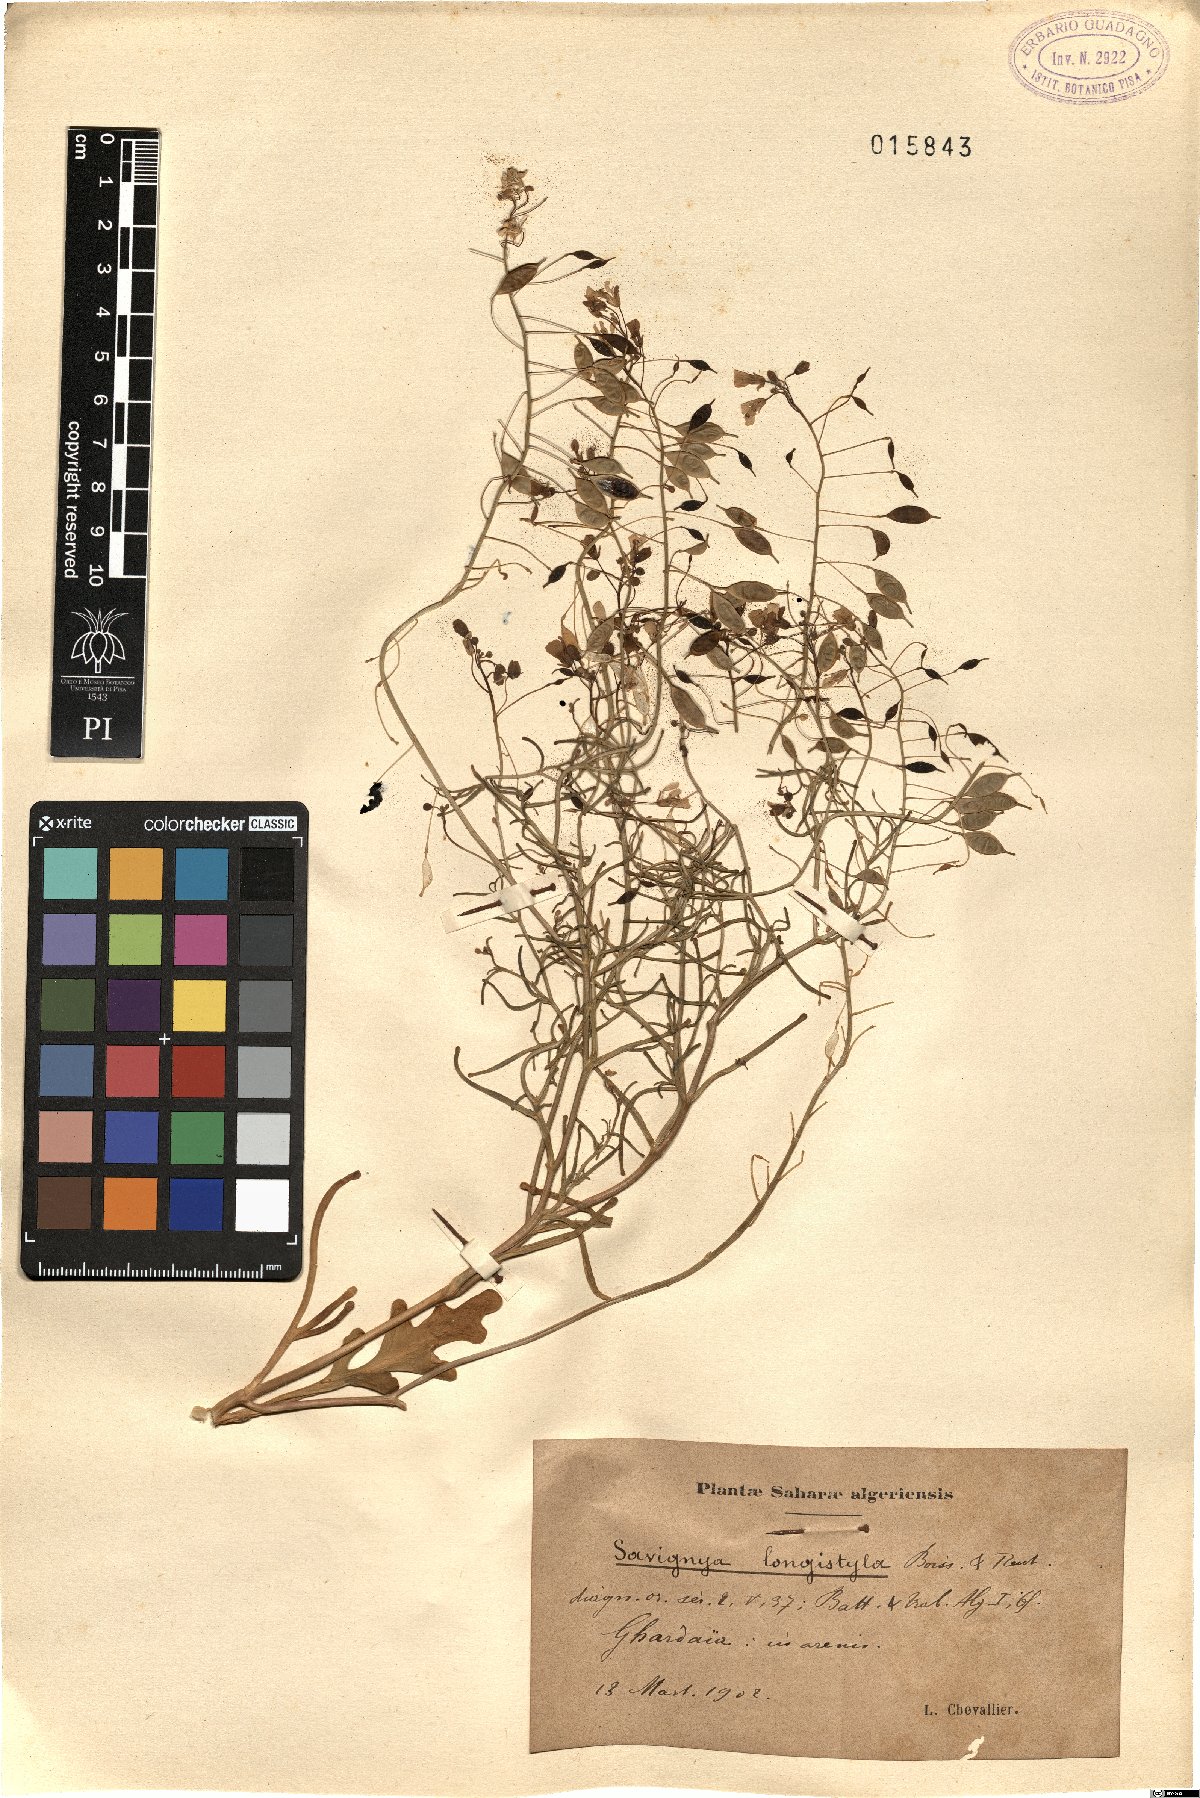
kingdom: Plantae
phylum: Tracheophyta
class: Magnoliopsida
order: Brassicales
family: Brassicaceae
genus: Savignya
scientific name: Savignya parviflora
